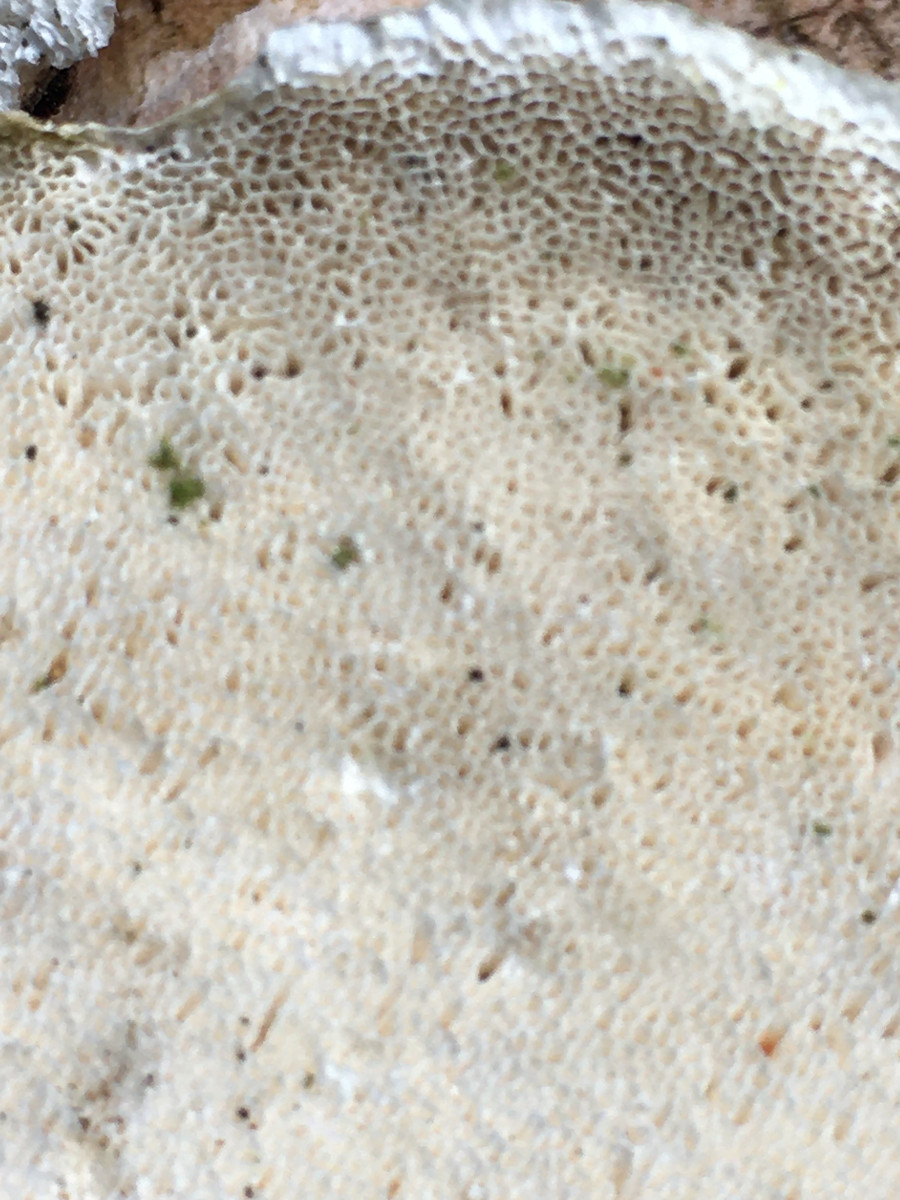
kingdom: Fungi
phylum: Basidiomycota
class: Agaricomycetes
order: Polyporales
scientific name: Polyporales
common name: poresvampordenen
